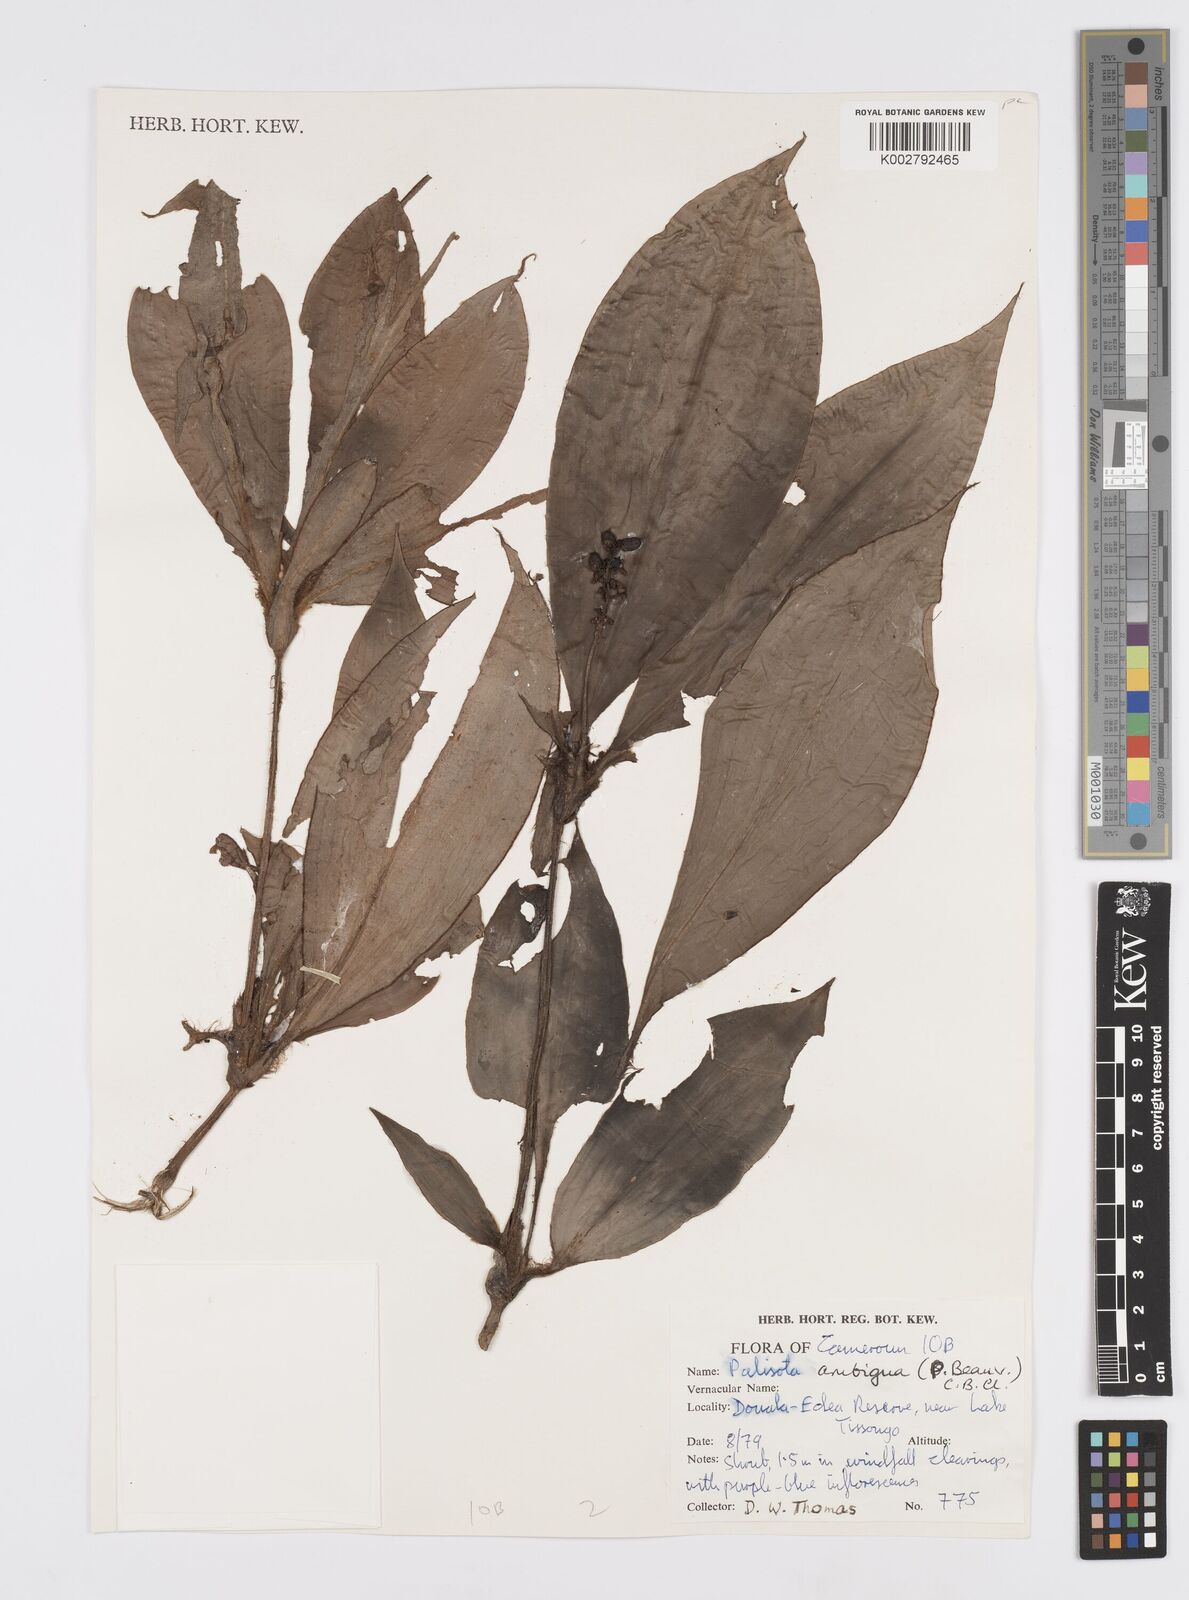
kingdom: Plantae
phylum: Tracheophyta
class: Liliopsida
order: Commelinales
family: Commelinaceae
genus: Palisota
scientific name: Palisota ambigua
